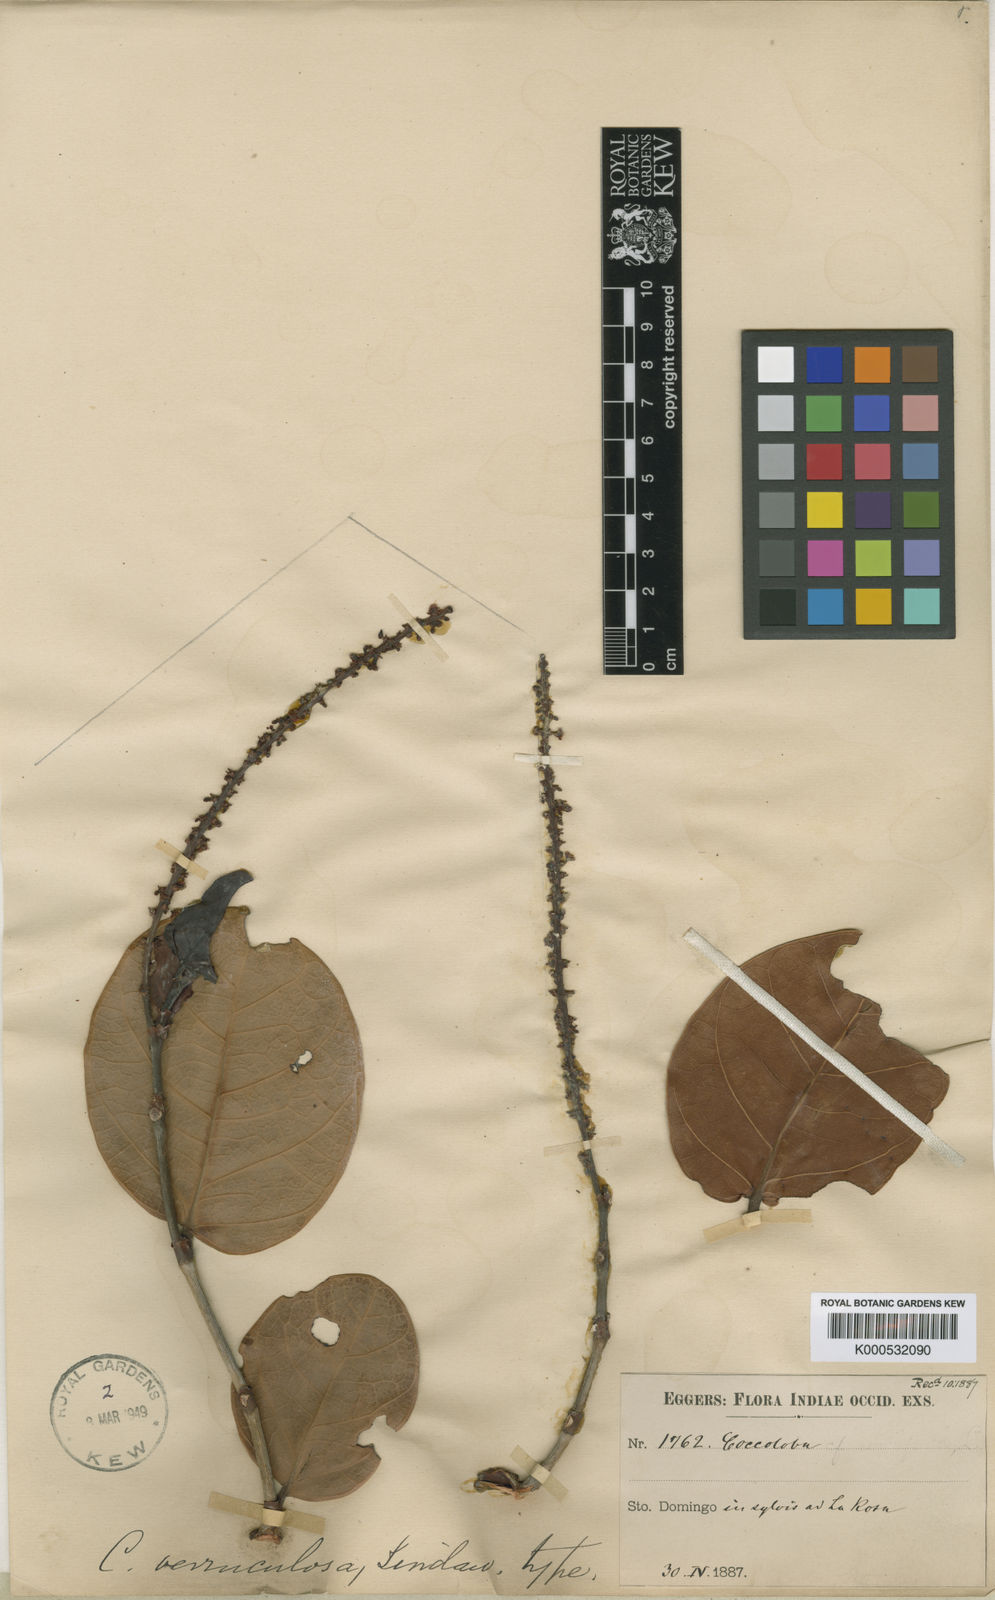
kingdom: Plantae
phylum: Tracheophyta
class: Magnoliopsida
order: Caryophyllales
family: Polygonaceae
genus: Coccoloba
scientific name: Coccoloba
